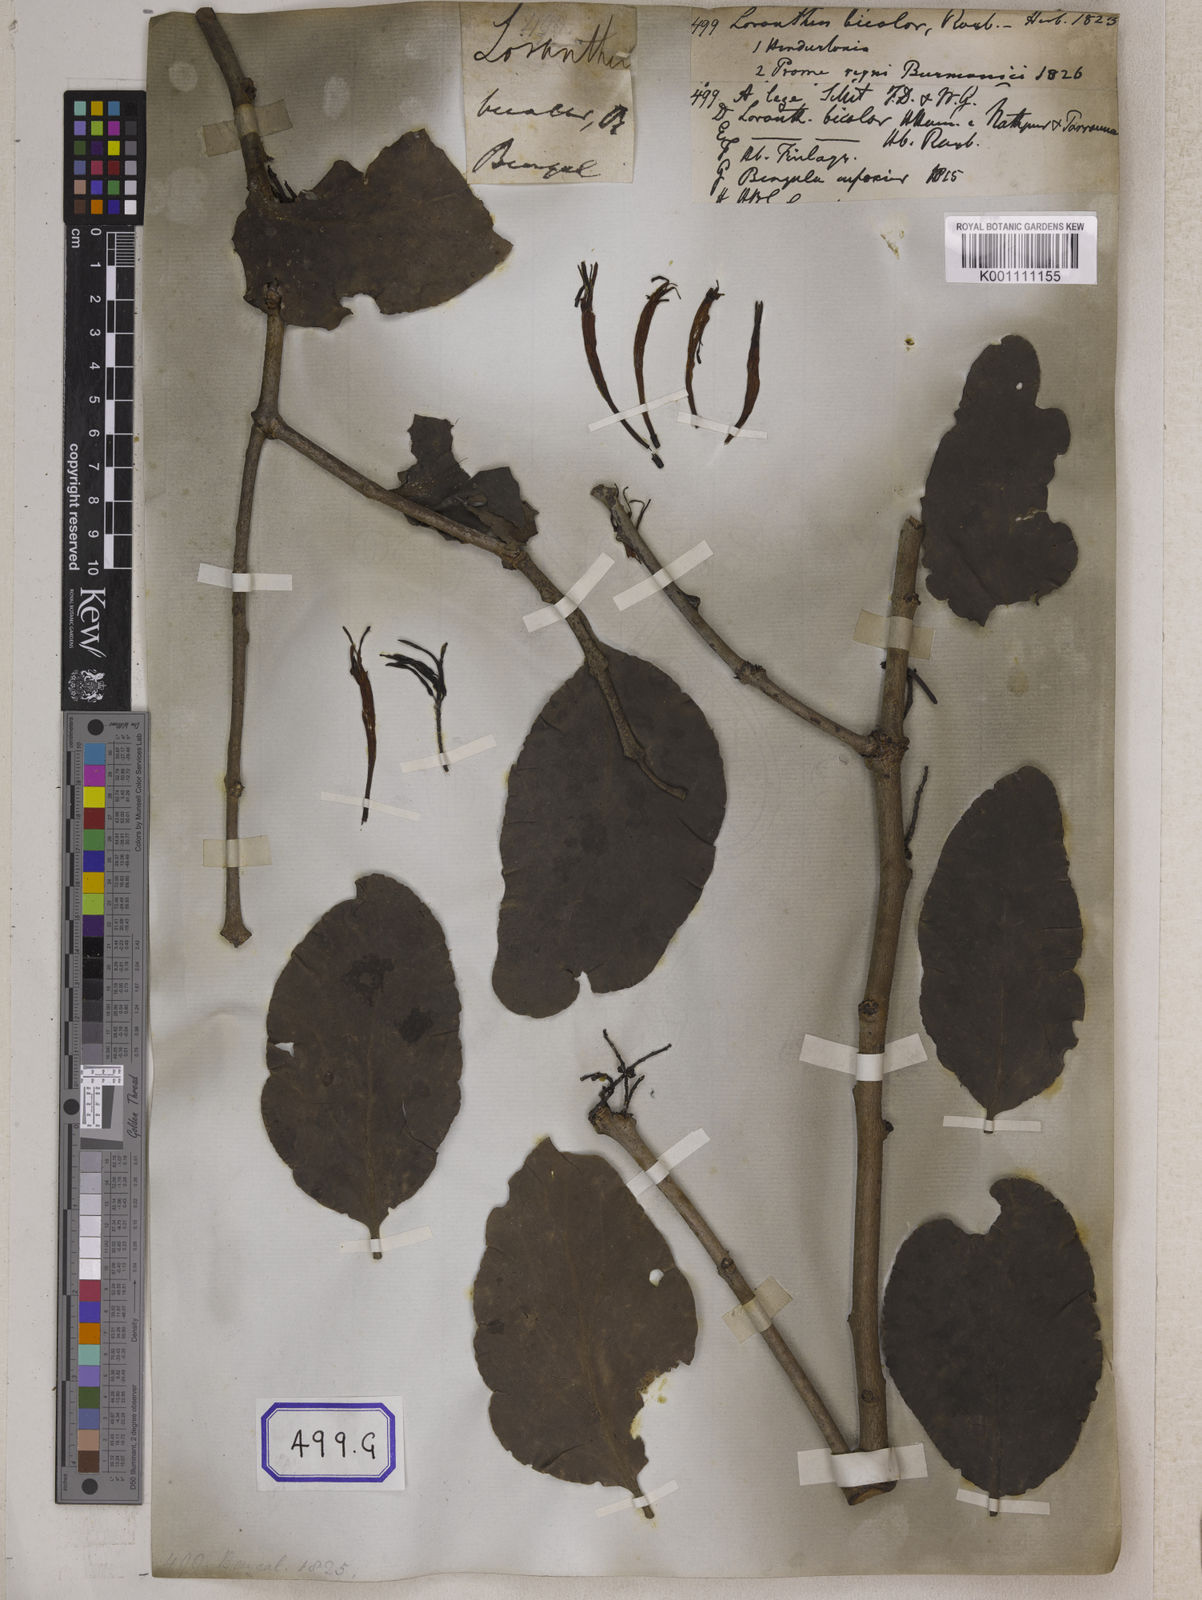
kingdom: Plantae
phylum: Tracheophyta
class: Magnoliopsida
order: Santalales
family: Loranthaceae
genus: Dendrophthoe
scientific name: Dendrophthoe falcata
